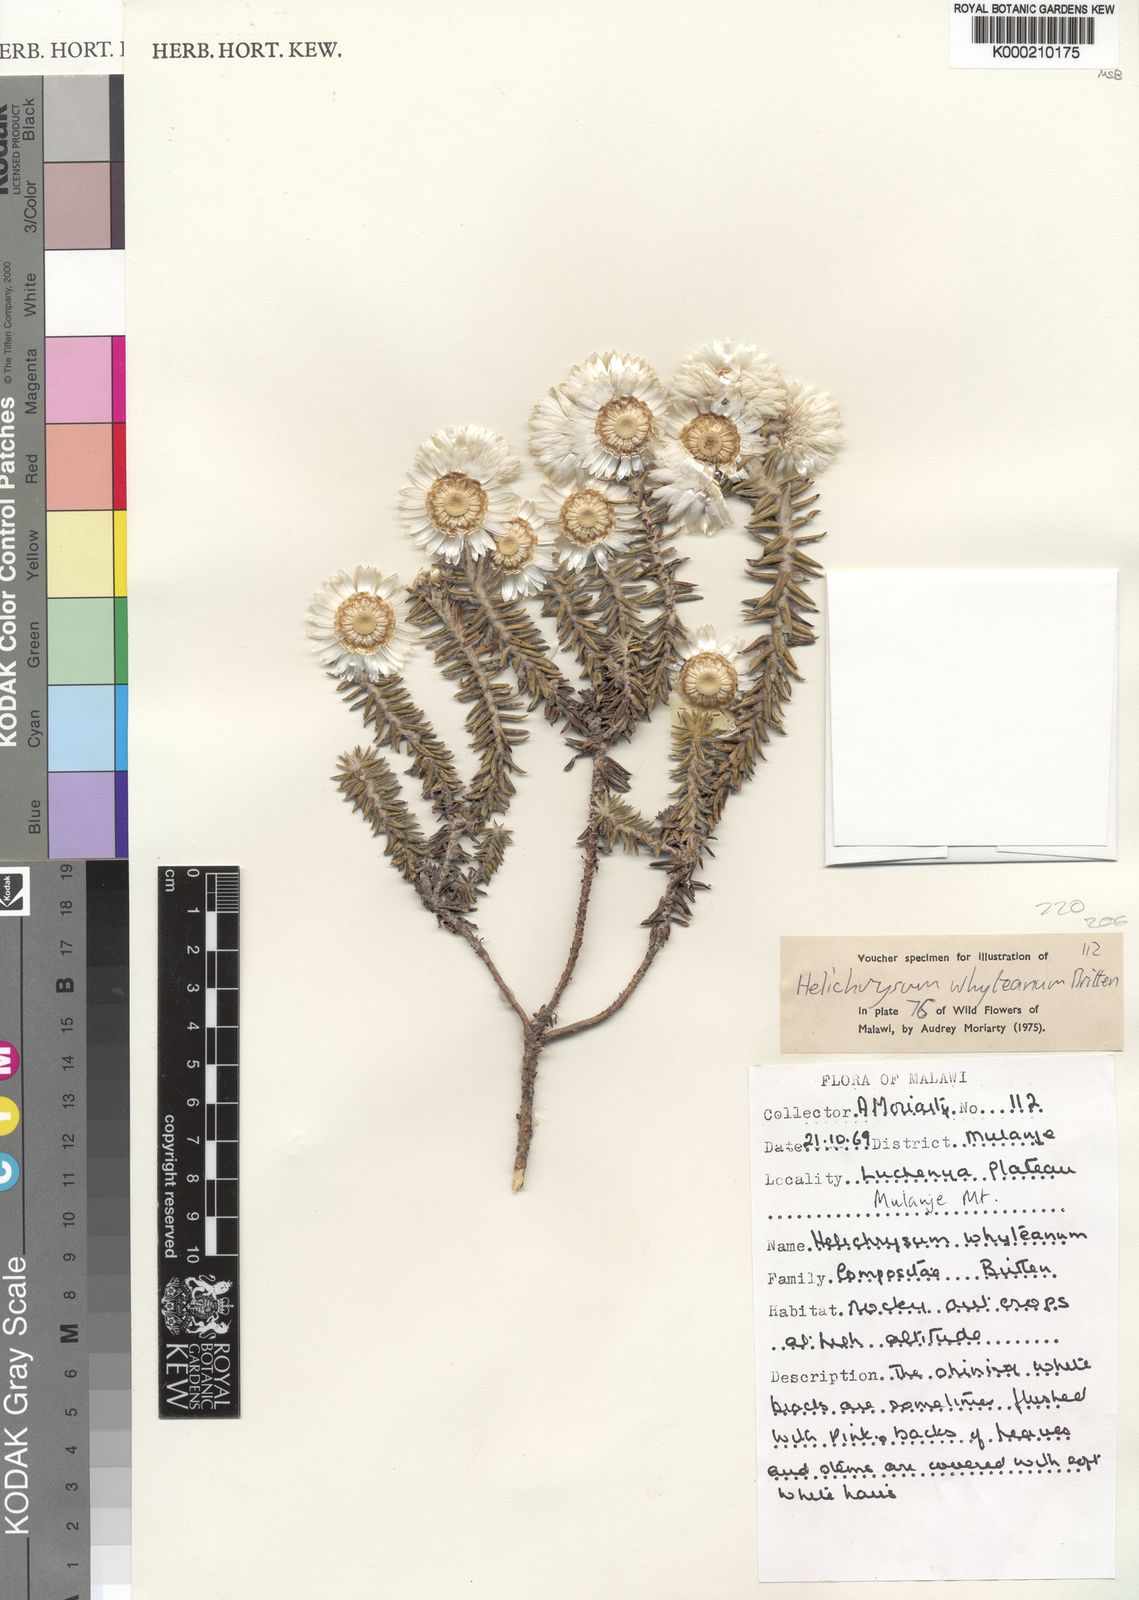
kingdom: Plantae
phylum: Tracheophyta
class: Magnoliopsida
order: Asterales
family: Asteraceae
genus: Helichrysum
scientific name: Helichrysum whyteanum
